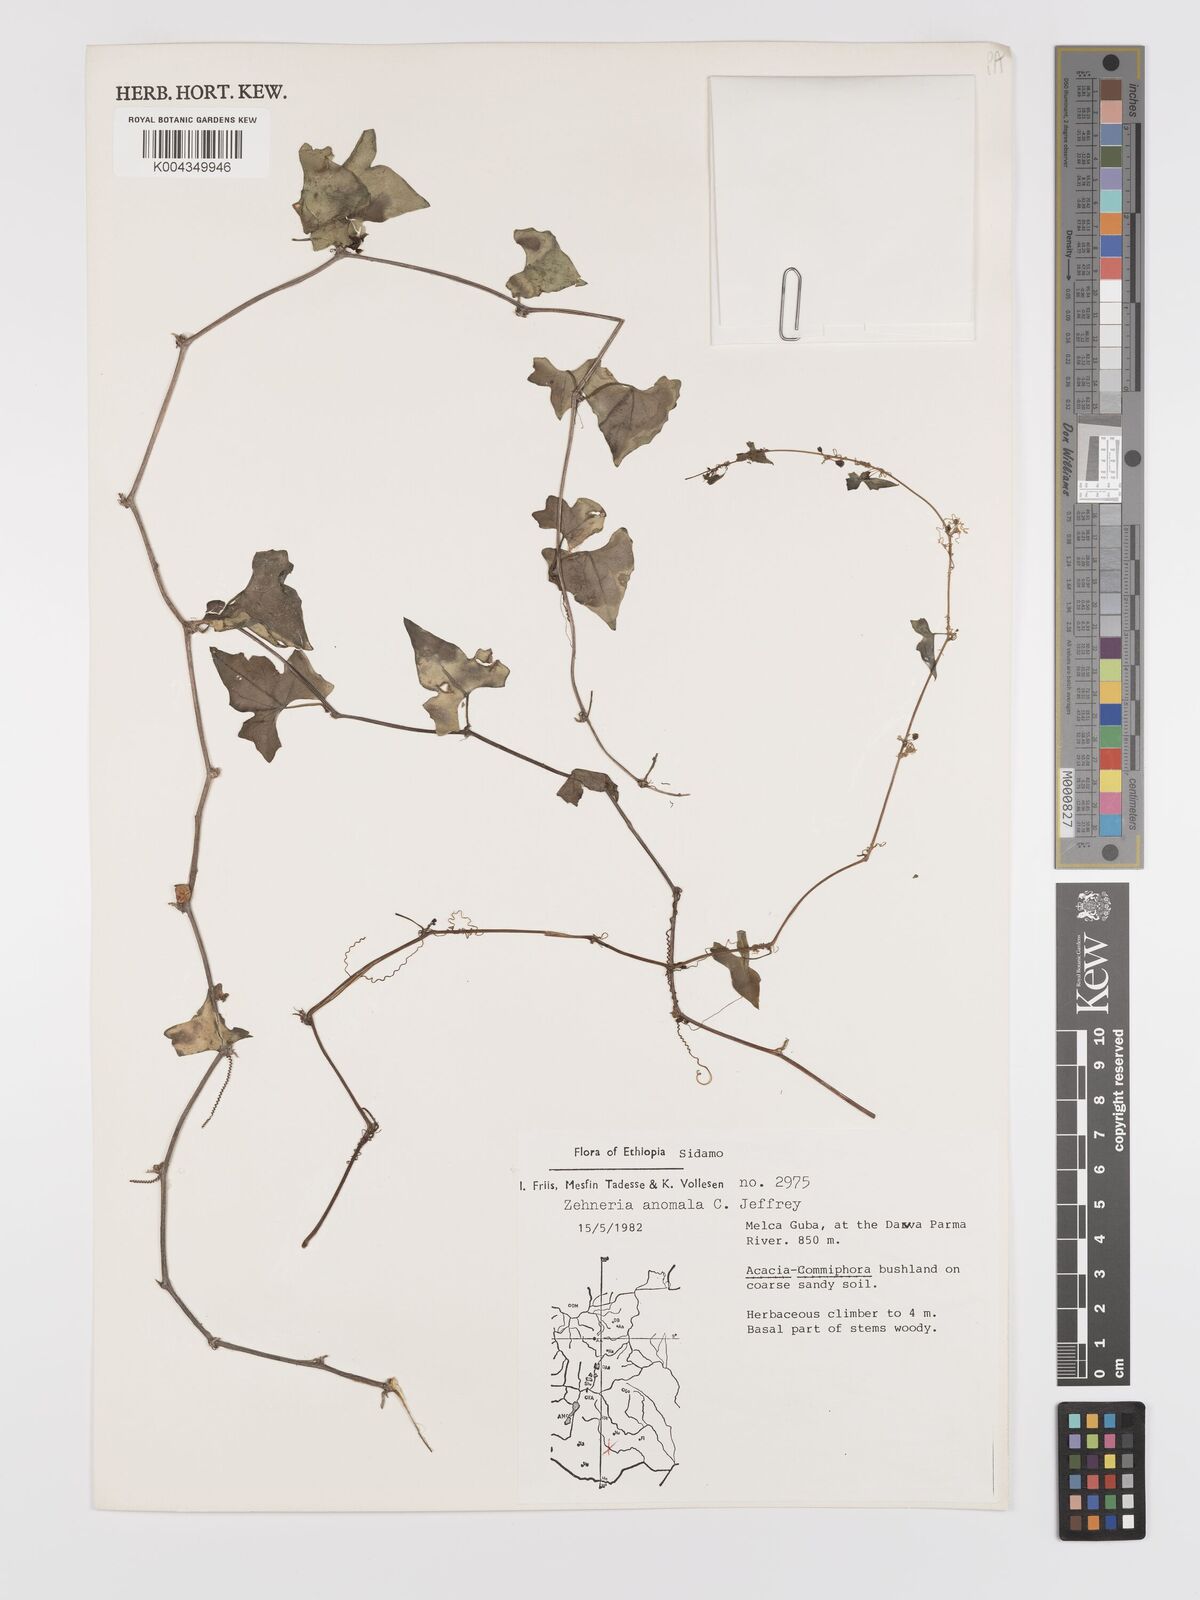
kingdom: Plantae
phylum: Tracheophyta
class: Magnoliopsida
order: Cucurbitales
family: Cucurbitaceae
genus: Zehneria
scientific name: Zehneria anomala
